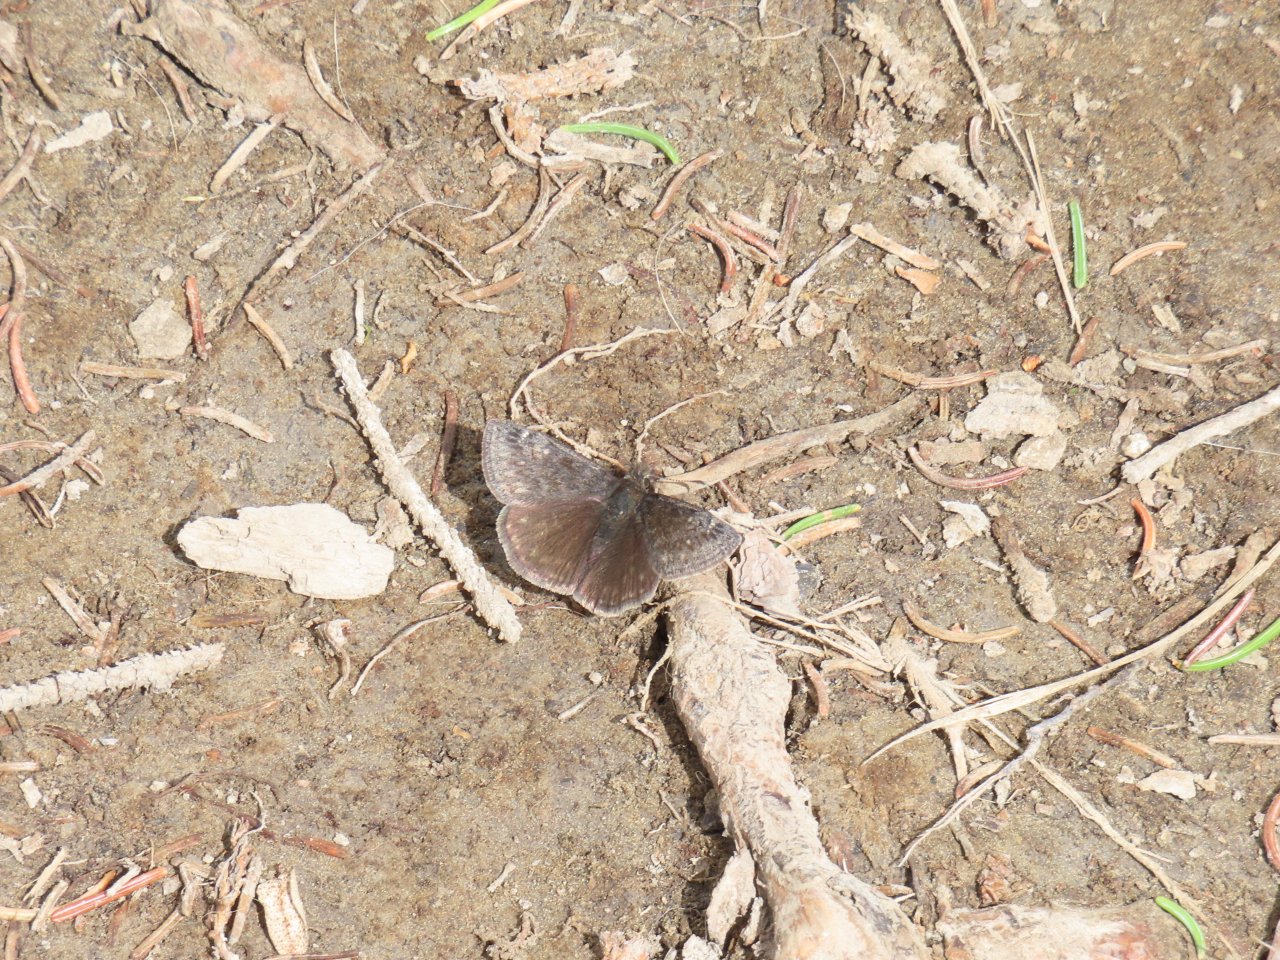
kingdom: Animalia
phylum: Arthropoda
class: Insecta
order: Lepidoptera
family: Hesperiidae
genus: Gesta
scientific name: Gesta
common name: Persius Duskywing
